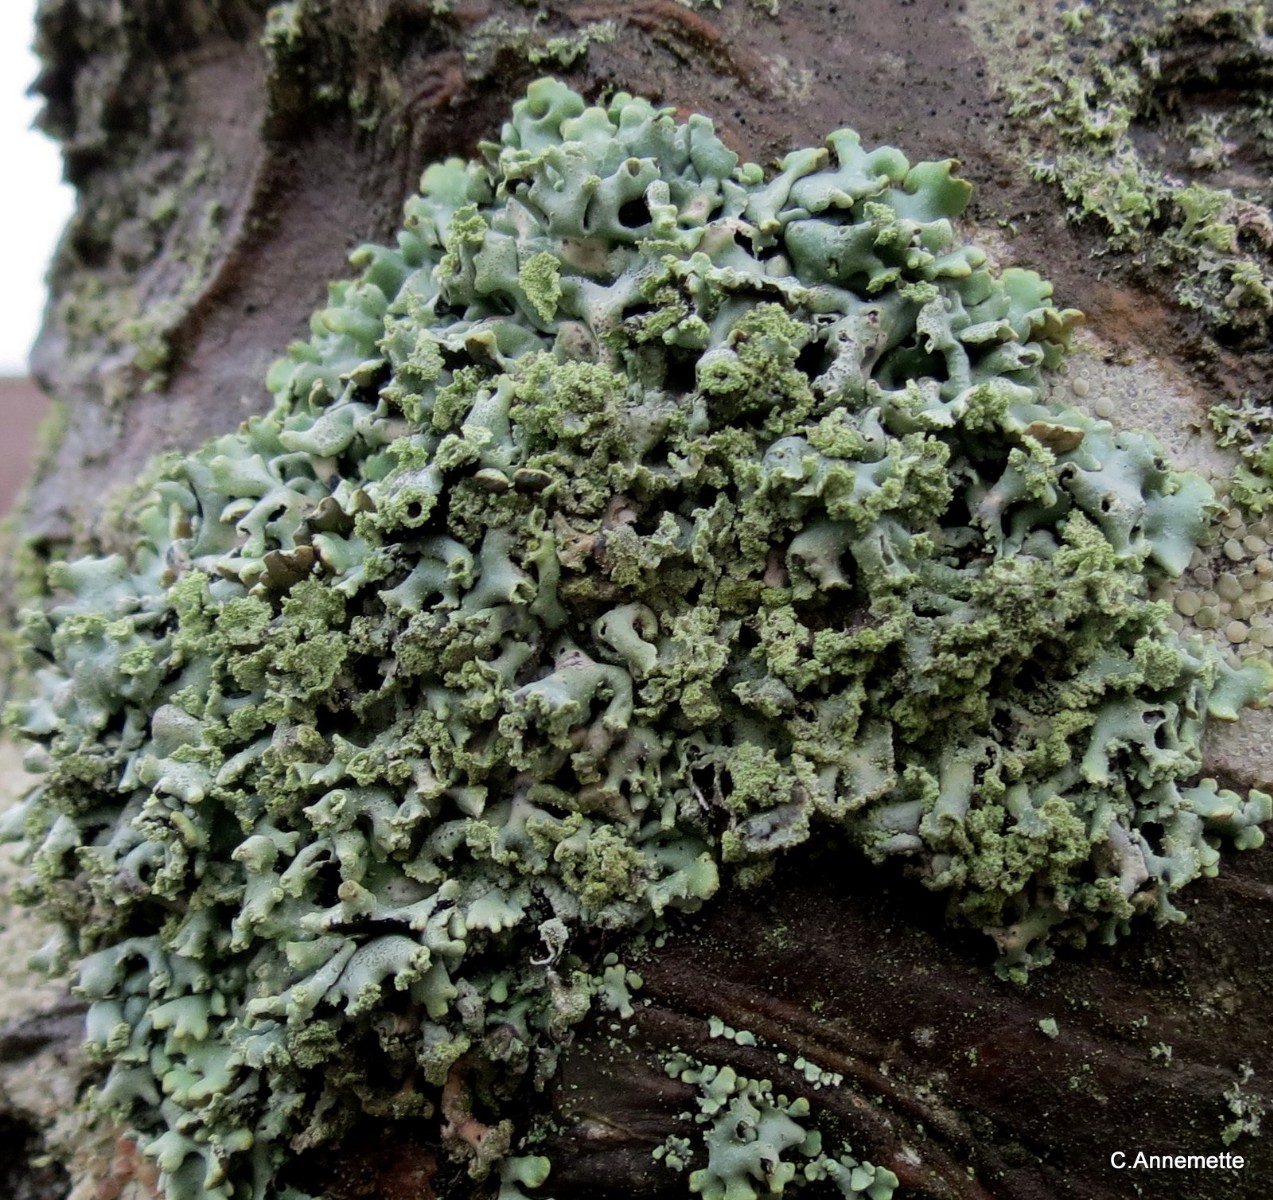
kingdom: Fungi
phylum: Ascomycota
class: Lecanoromycetes
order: Lecanorales
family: Parmeliaceae
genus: Hypogymnia
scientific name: Hypogymnia physodes
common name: almindelig kvistlav
